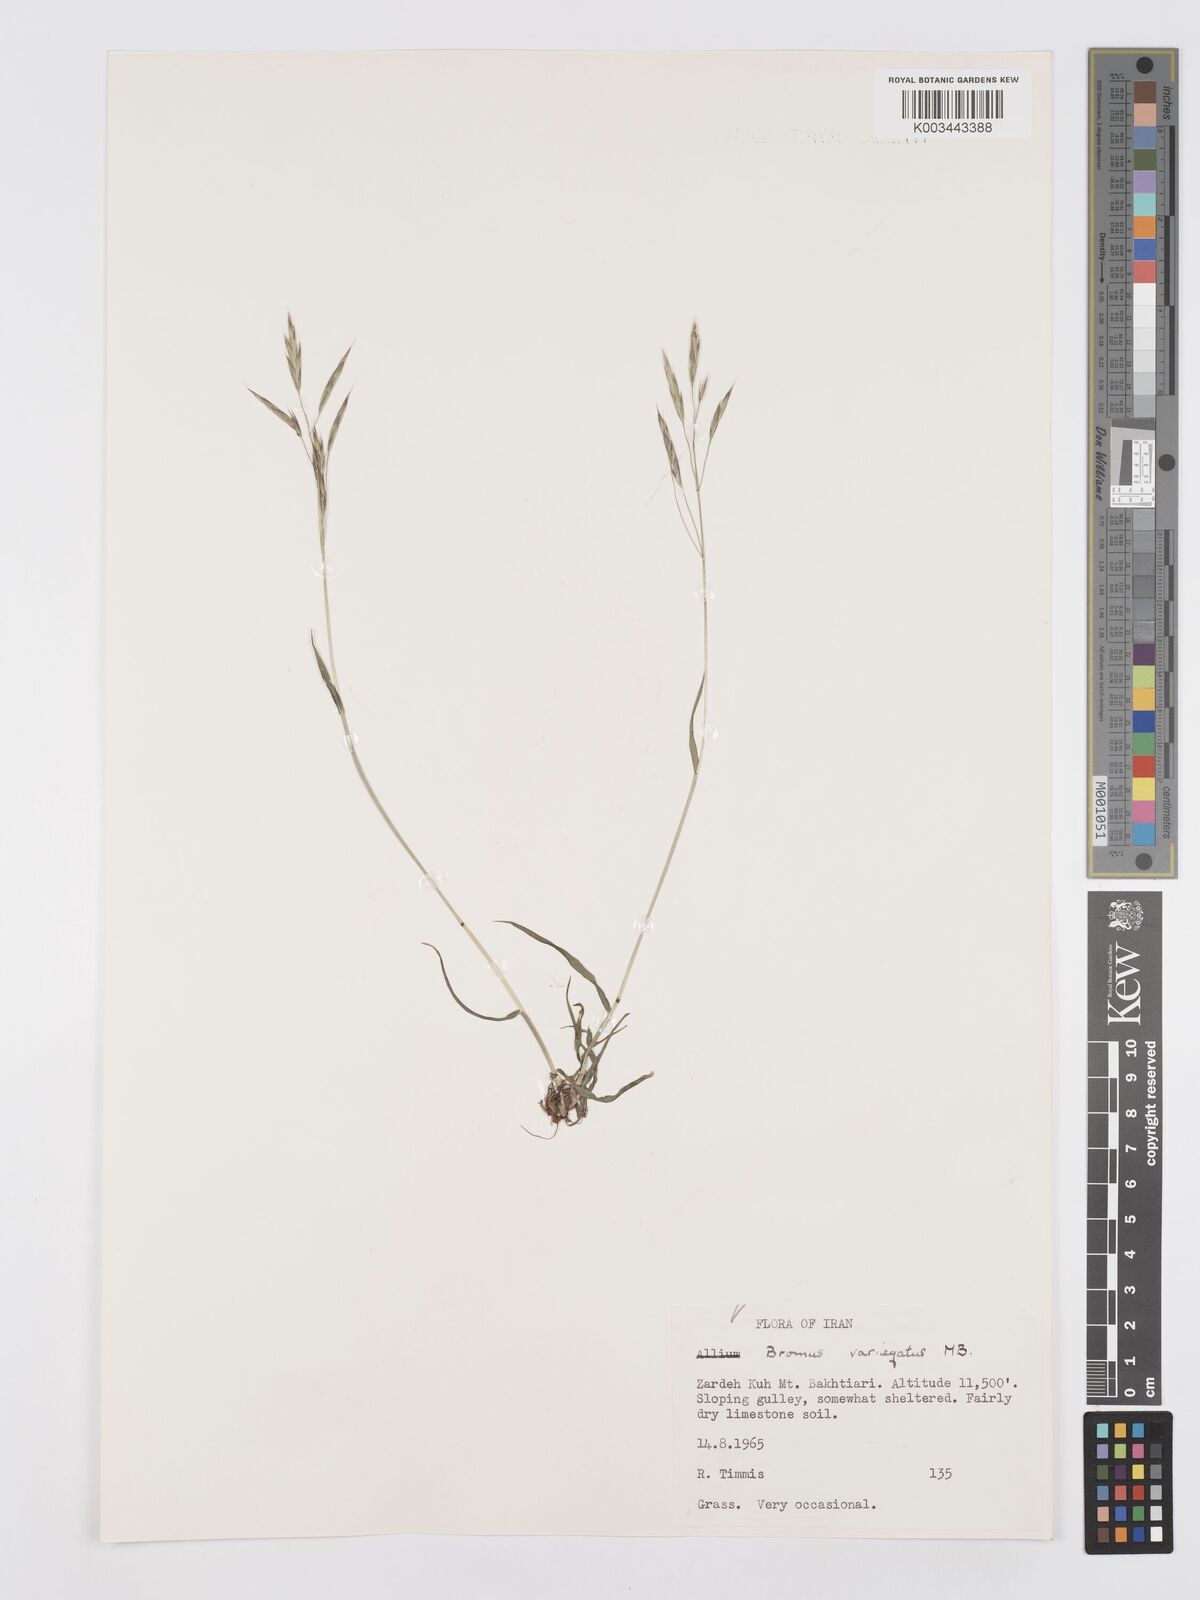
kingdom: Plantae
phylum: Tracheophyta
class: Liliopsida
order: Poales
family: Poaceae
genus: Bromus
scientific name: Bromus variegatus
